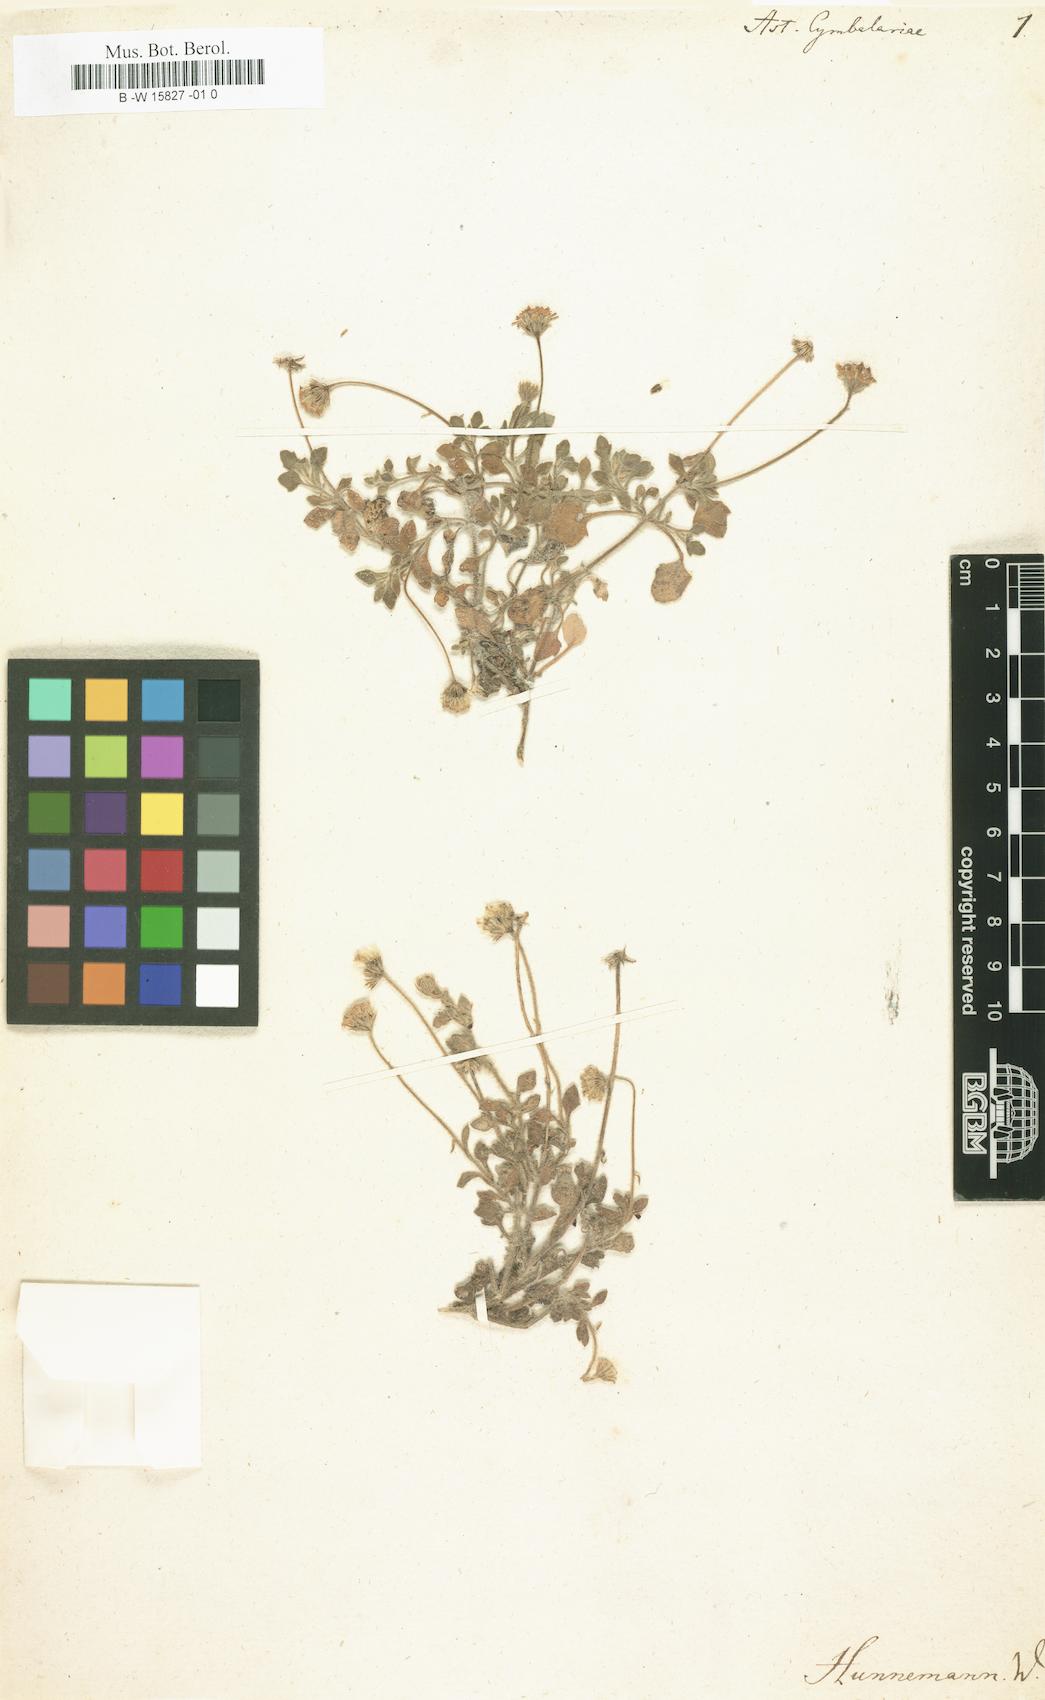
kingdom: Plantae
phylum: Tracheophyta
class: Magnoliopsida
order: Asterales
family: Asteraceae
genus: Felicia
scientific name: Felicia cymbalariae
